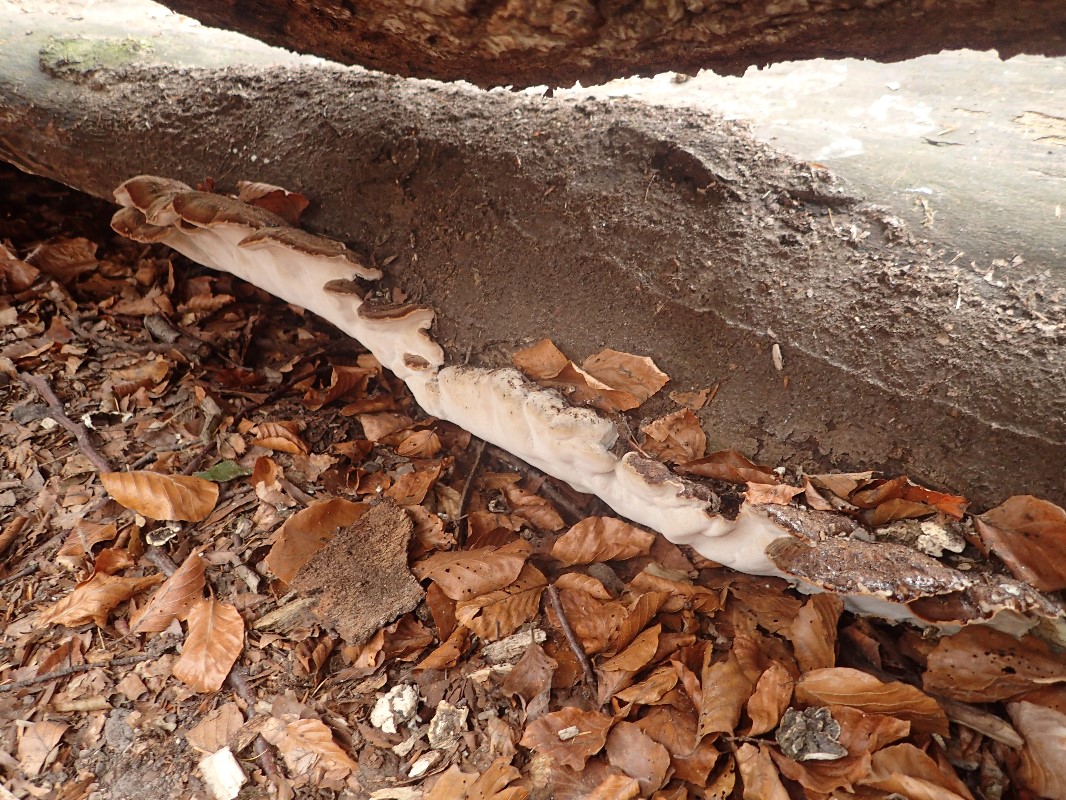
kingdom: Fungi
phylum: Basidiomycota
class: Agaricomycetes
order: Polyporales
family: Ischnodermataceae
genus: Ischnoderma
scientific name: Ischnoderma resinosum
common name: løv-tjæreporesvamp
